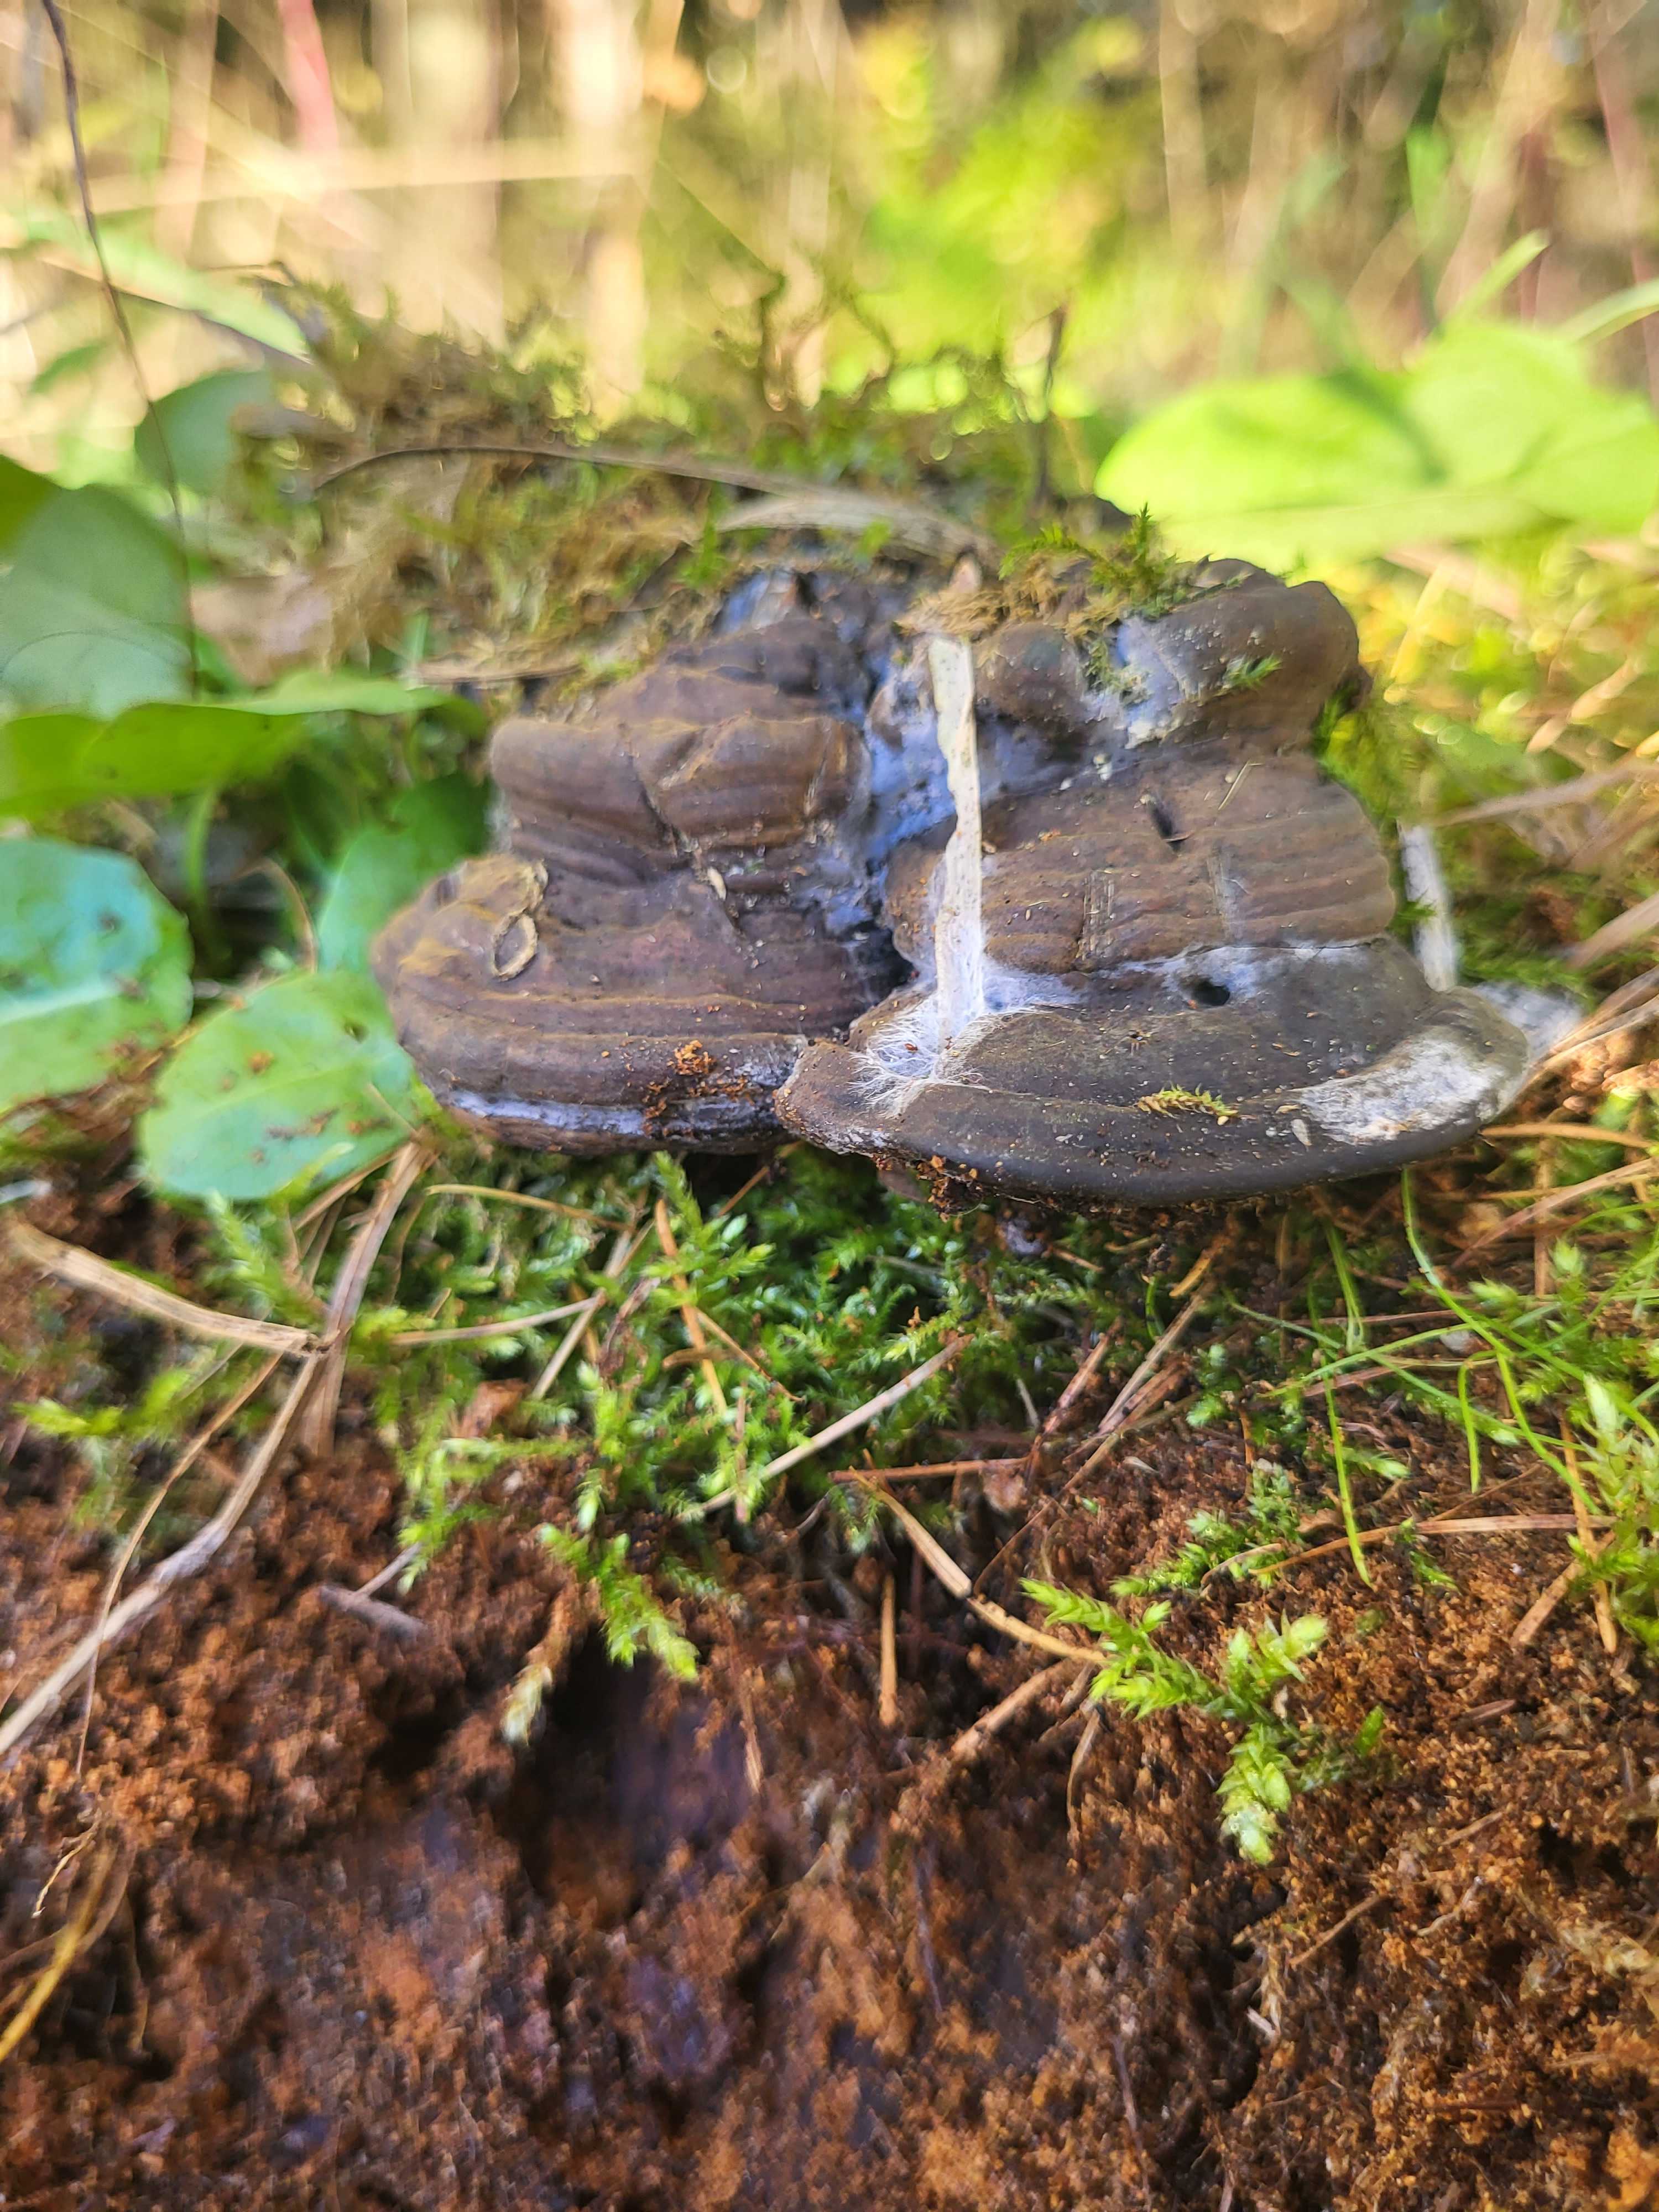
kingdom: Fungi
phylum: Basidiomycota
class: Agaricomycetes
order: Polyporales
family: Polyporaceae
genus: Fomes
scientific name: Fomes fomentarius
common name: tøndersvamp
